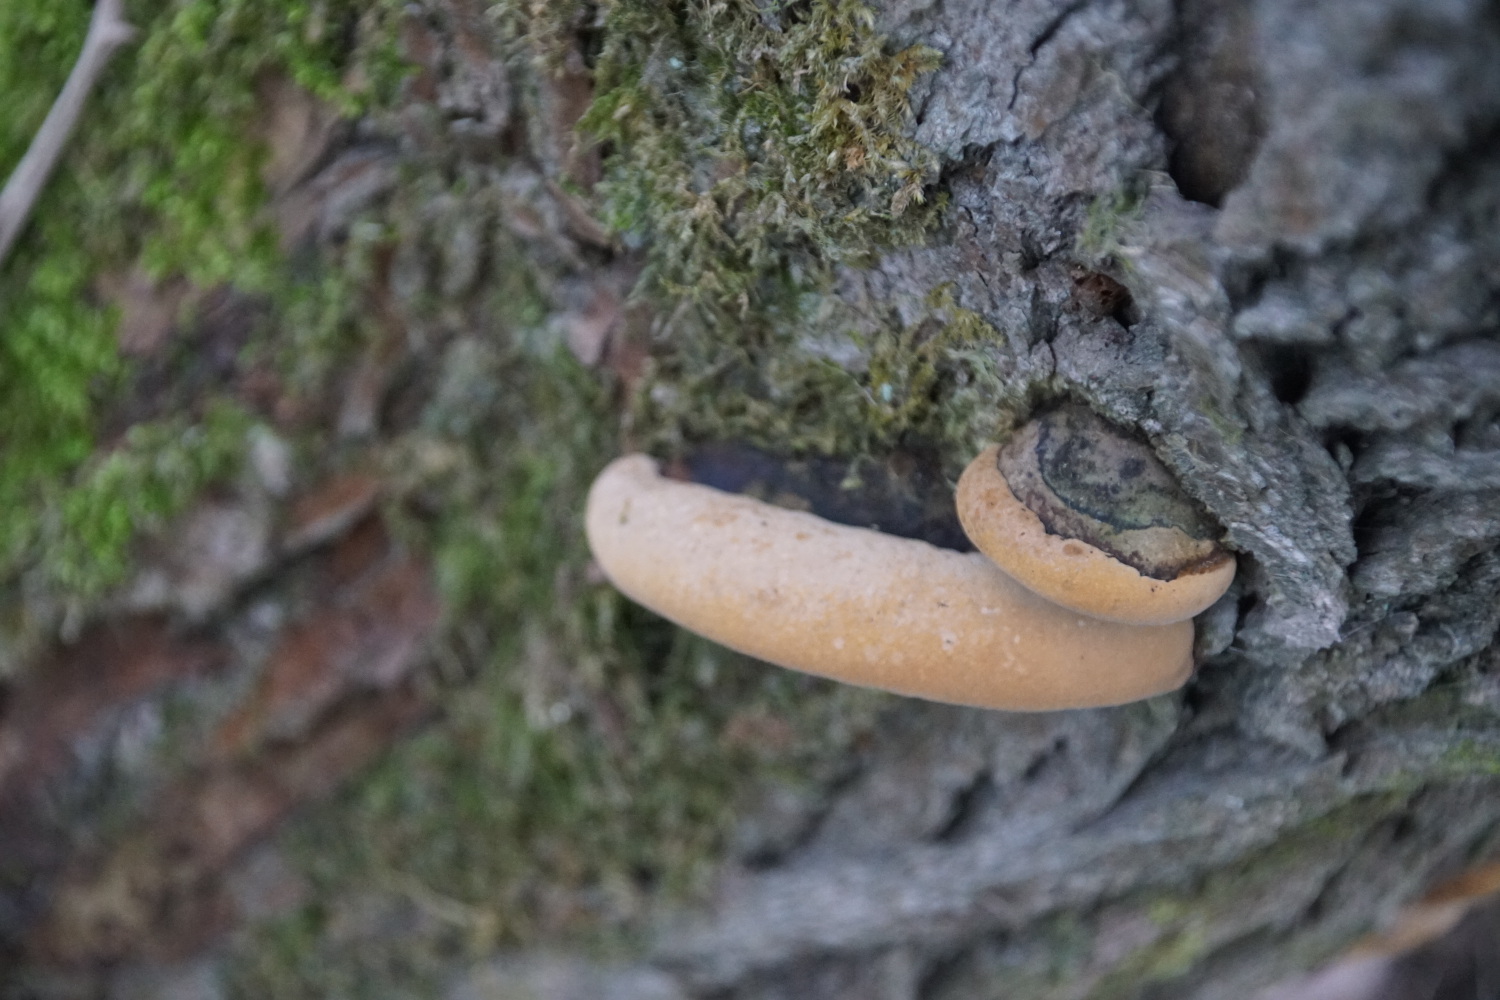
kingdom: Fungi
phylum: Basidiomycota
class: Agaricomycetes
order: Hymenochaetales
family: Hymenochaetaceae
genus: Phellinus
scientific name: Phellinus igniarius
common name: almindelig ildporesvamp
